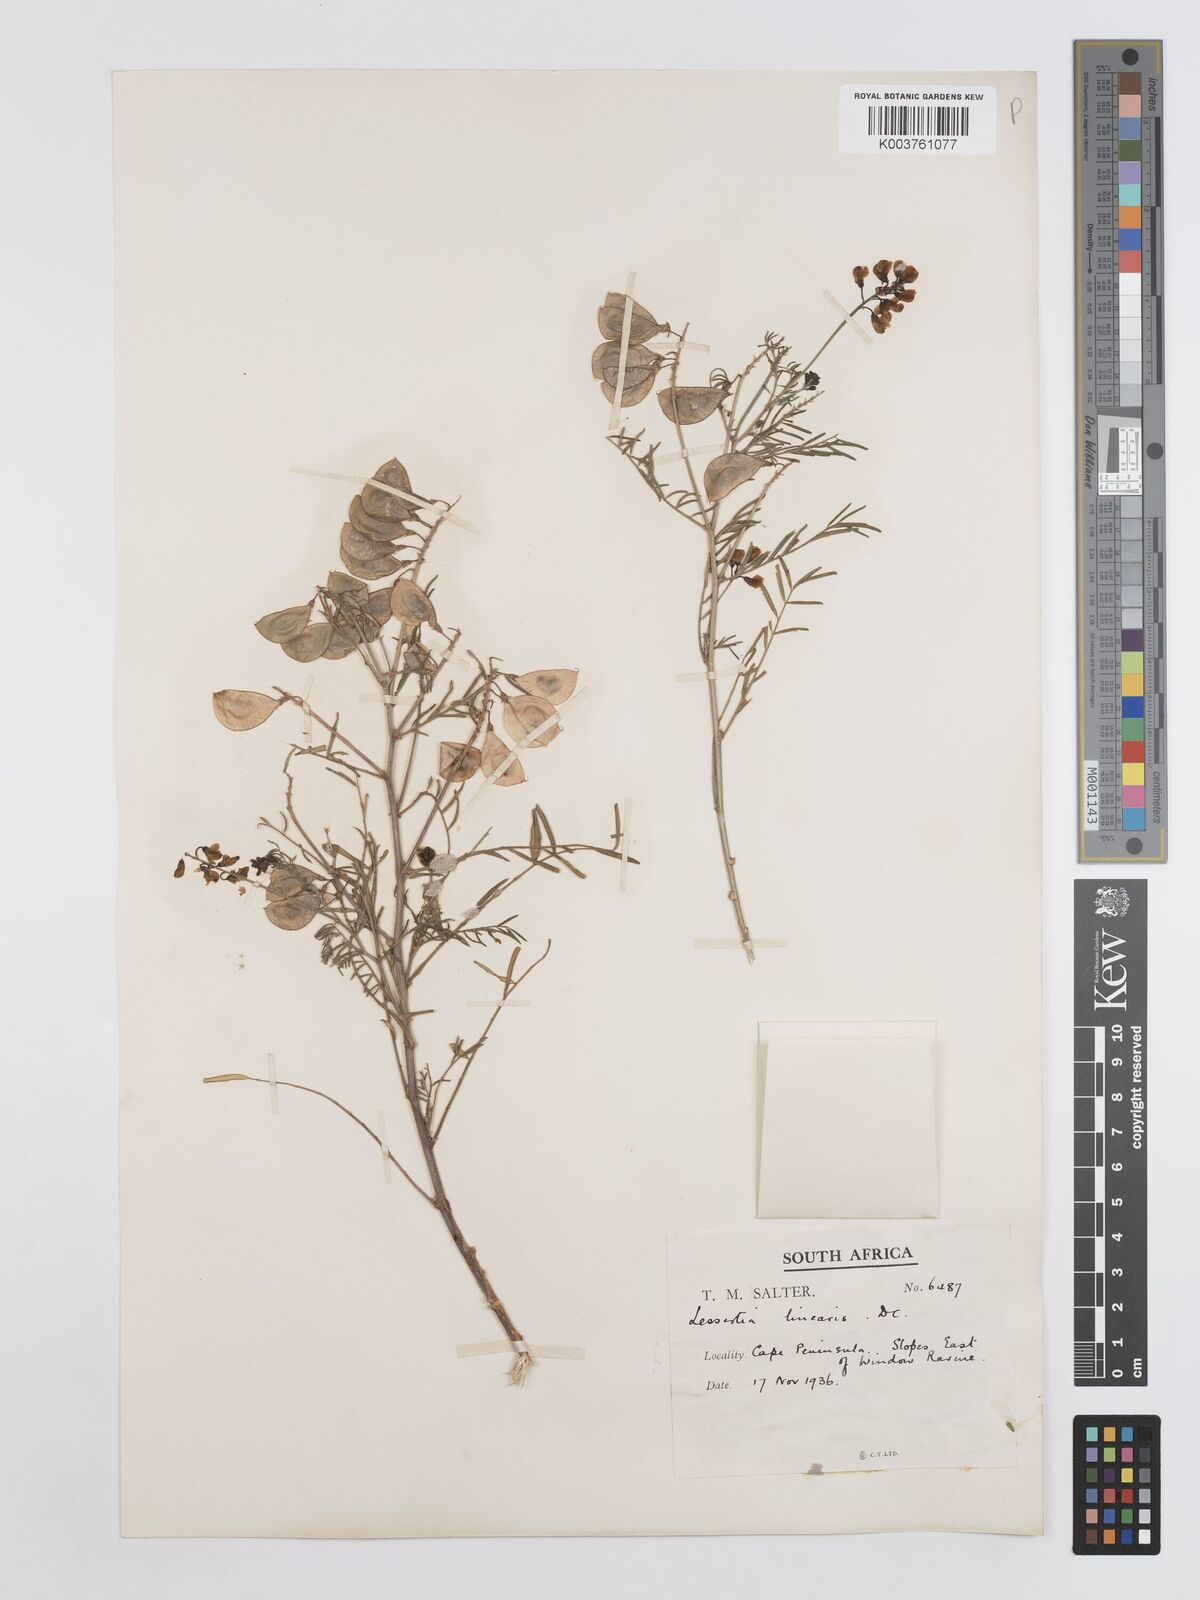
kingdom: Plantae
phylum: Tracheophyta
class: Magnoliopsida
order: Fabales
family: Fabaceae
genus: Lessertia
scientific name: Lessertia herbacea
